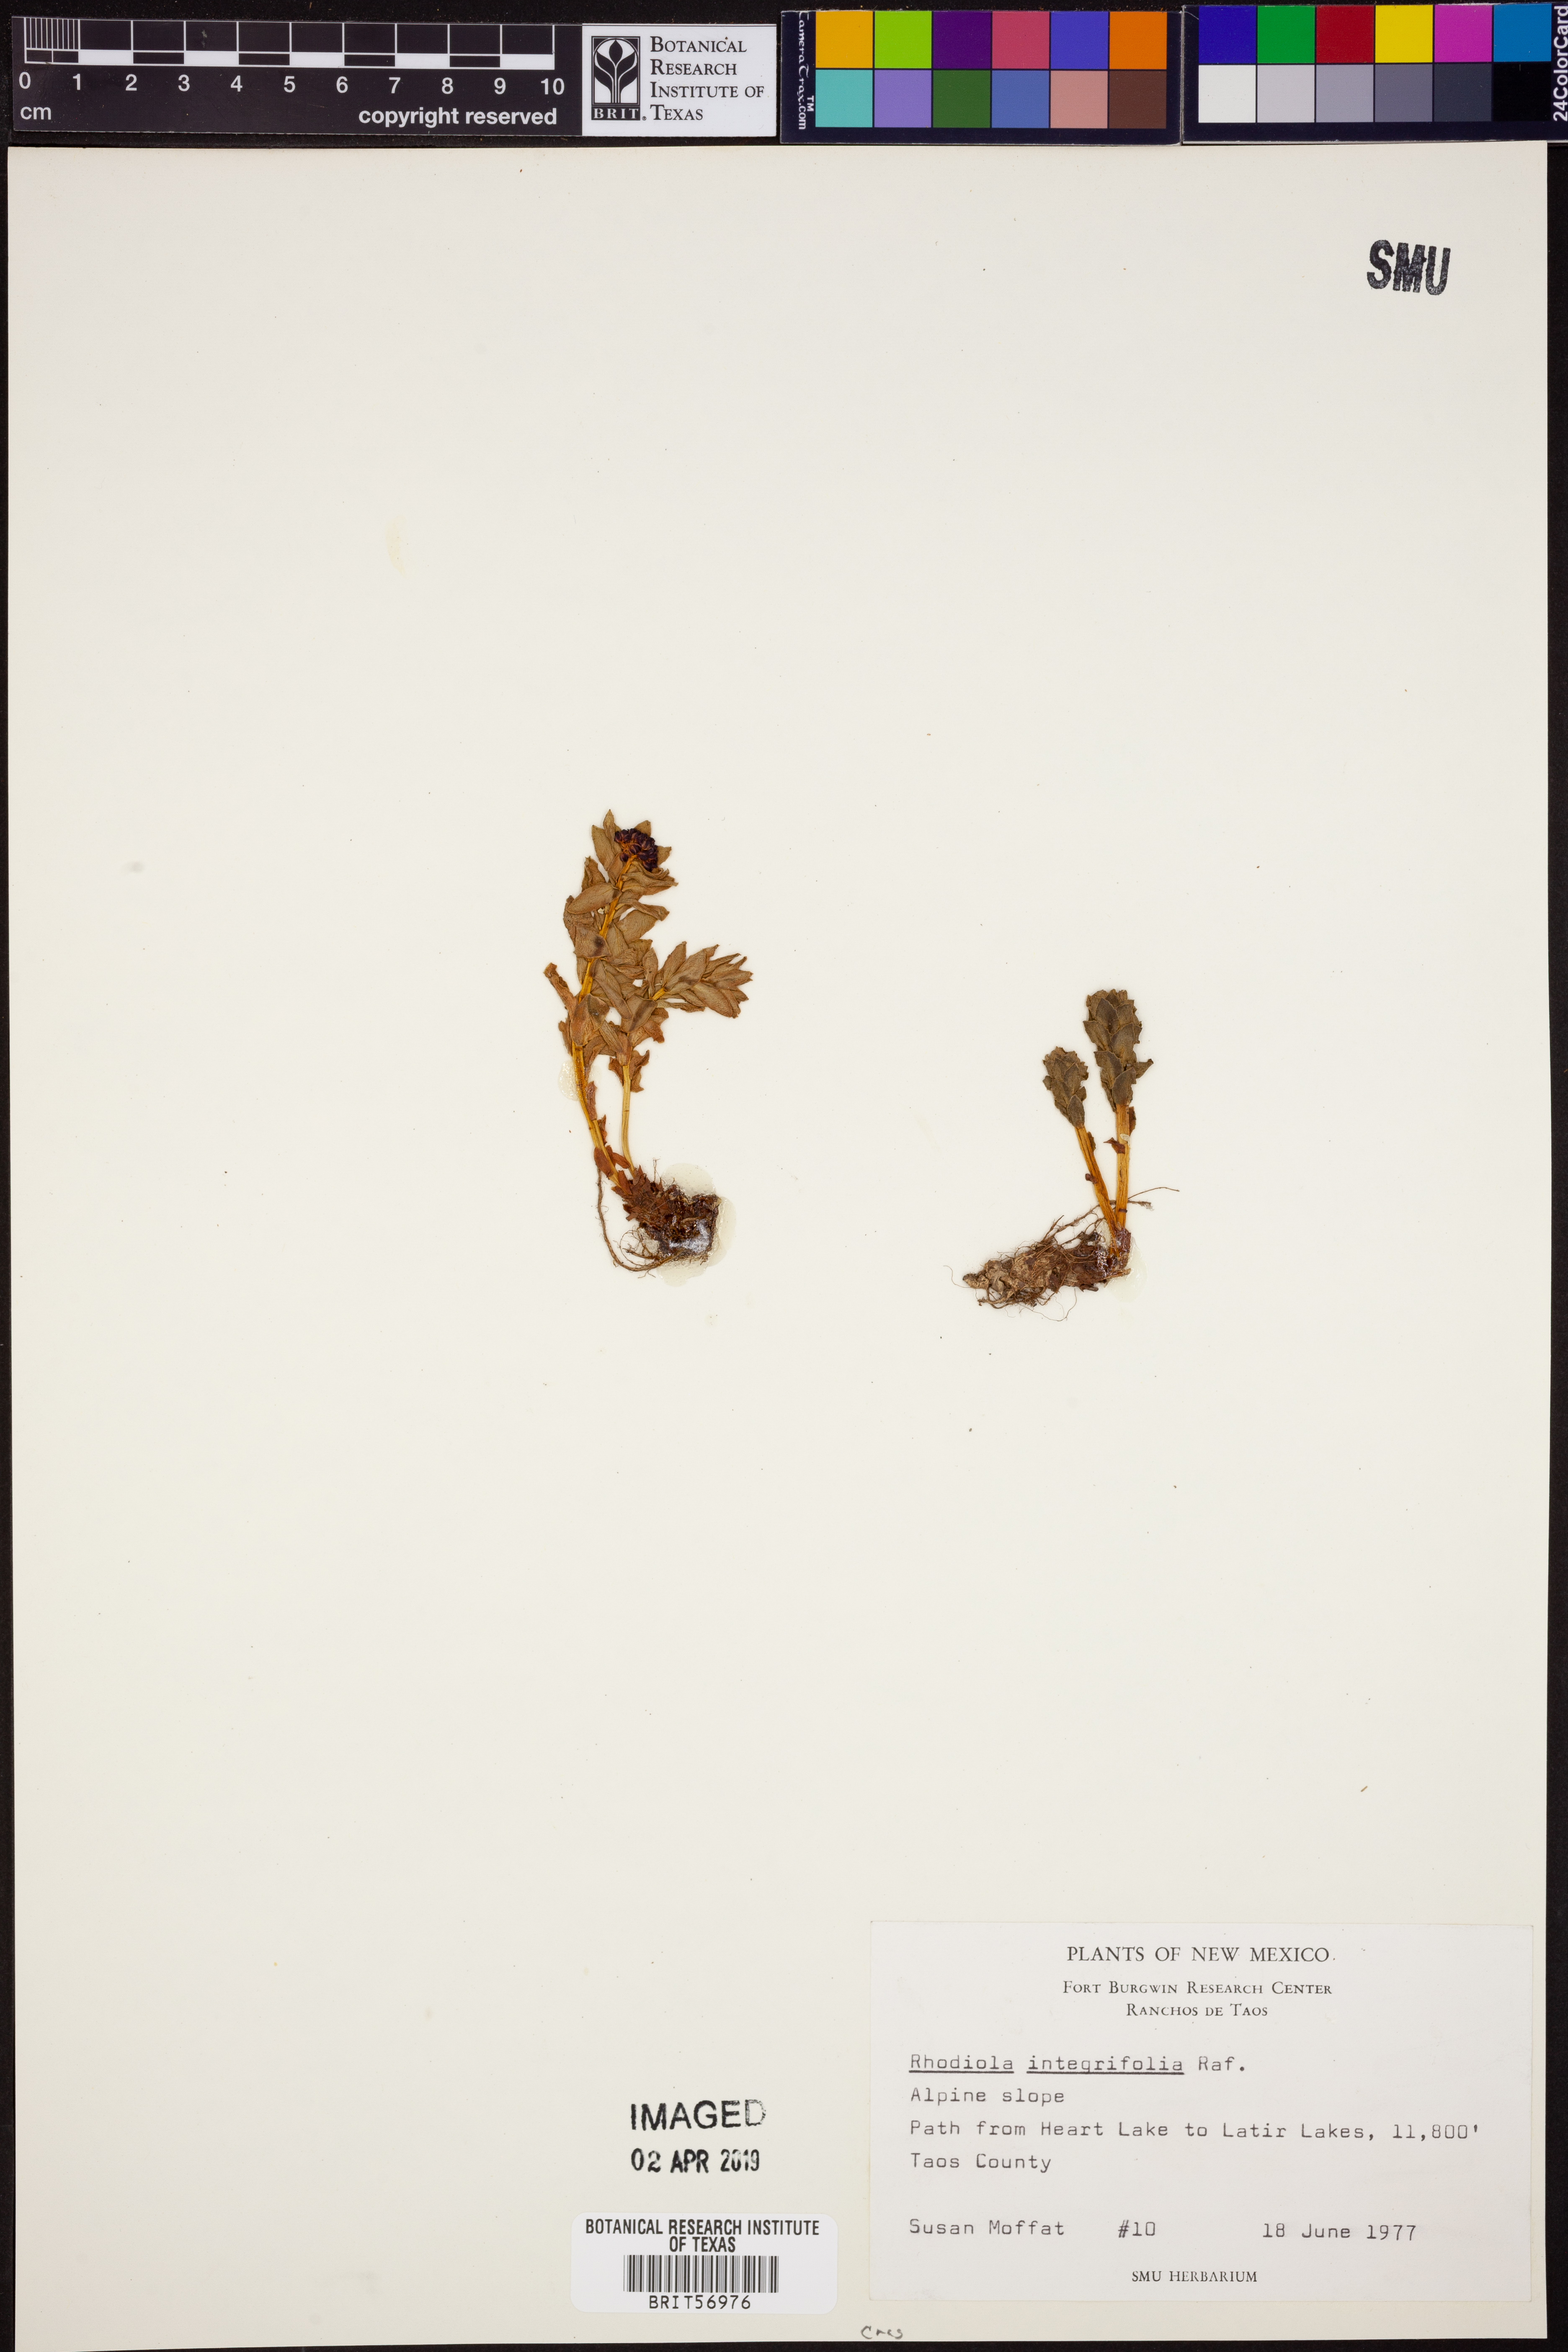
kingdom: Plantae
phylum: Tracheophyta
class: Magnoliopsida
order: Saxifragales
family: Crassulaceae
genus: Rhodiola
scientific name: Rhodiola integrifolia
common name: Western roseroot
